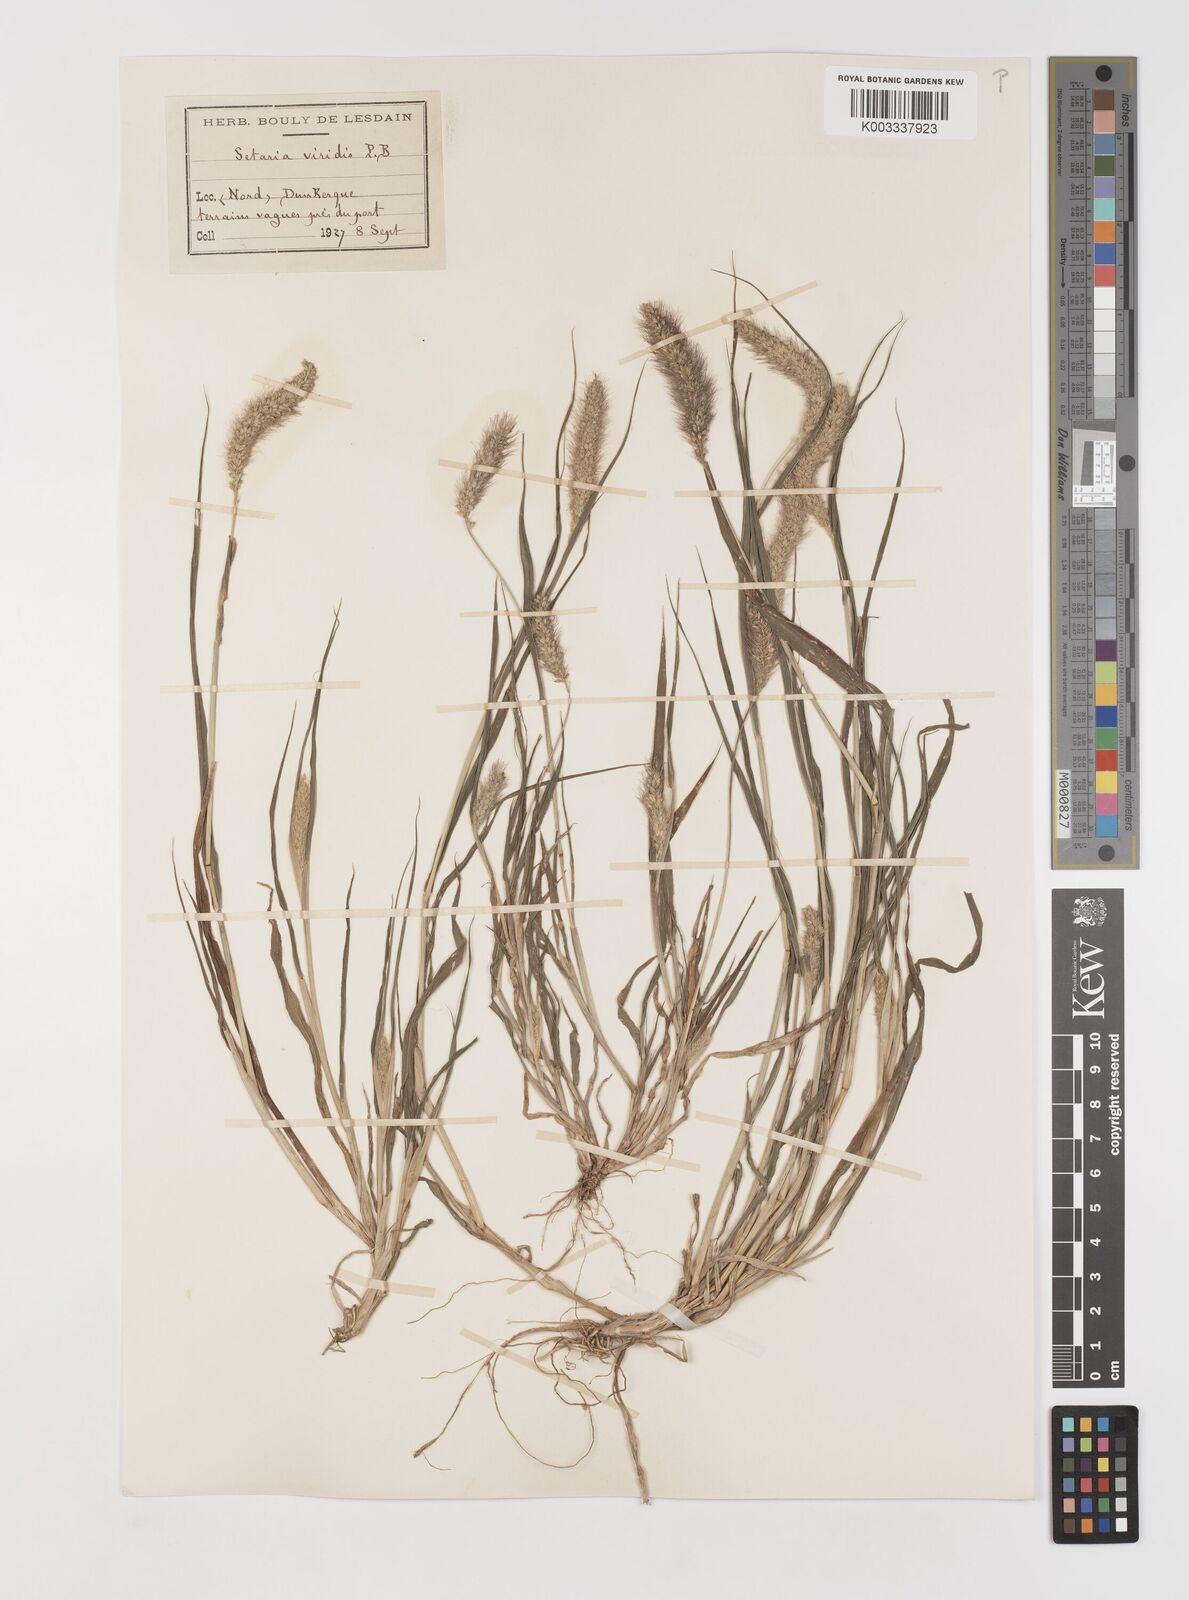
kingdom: Plantae
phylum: Tracheophyta
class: Liliopsida
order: Poales
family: Poaceae
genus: Setaria
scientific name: Setaria viridis
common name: Green bristlegrass
